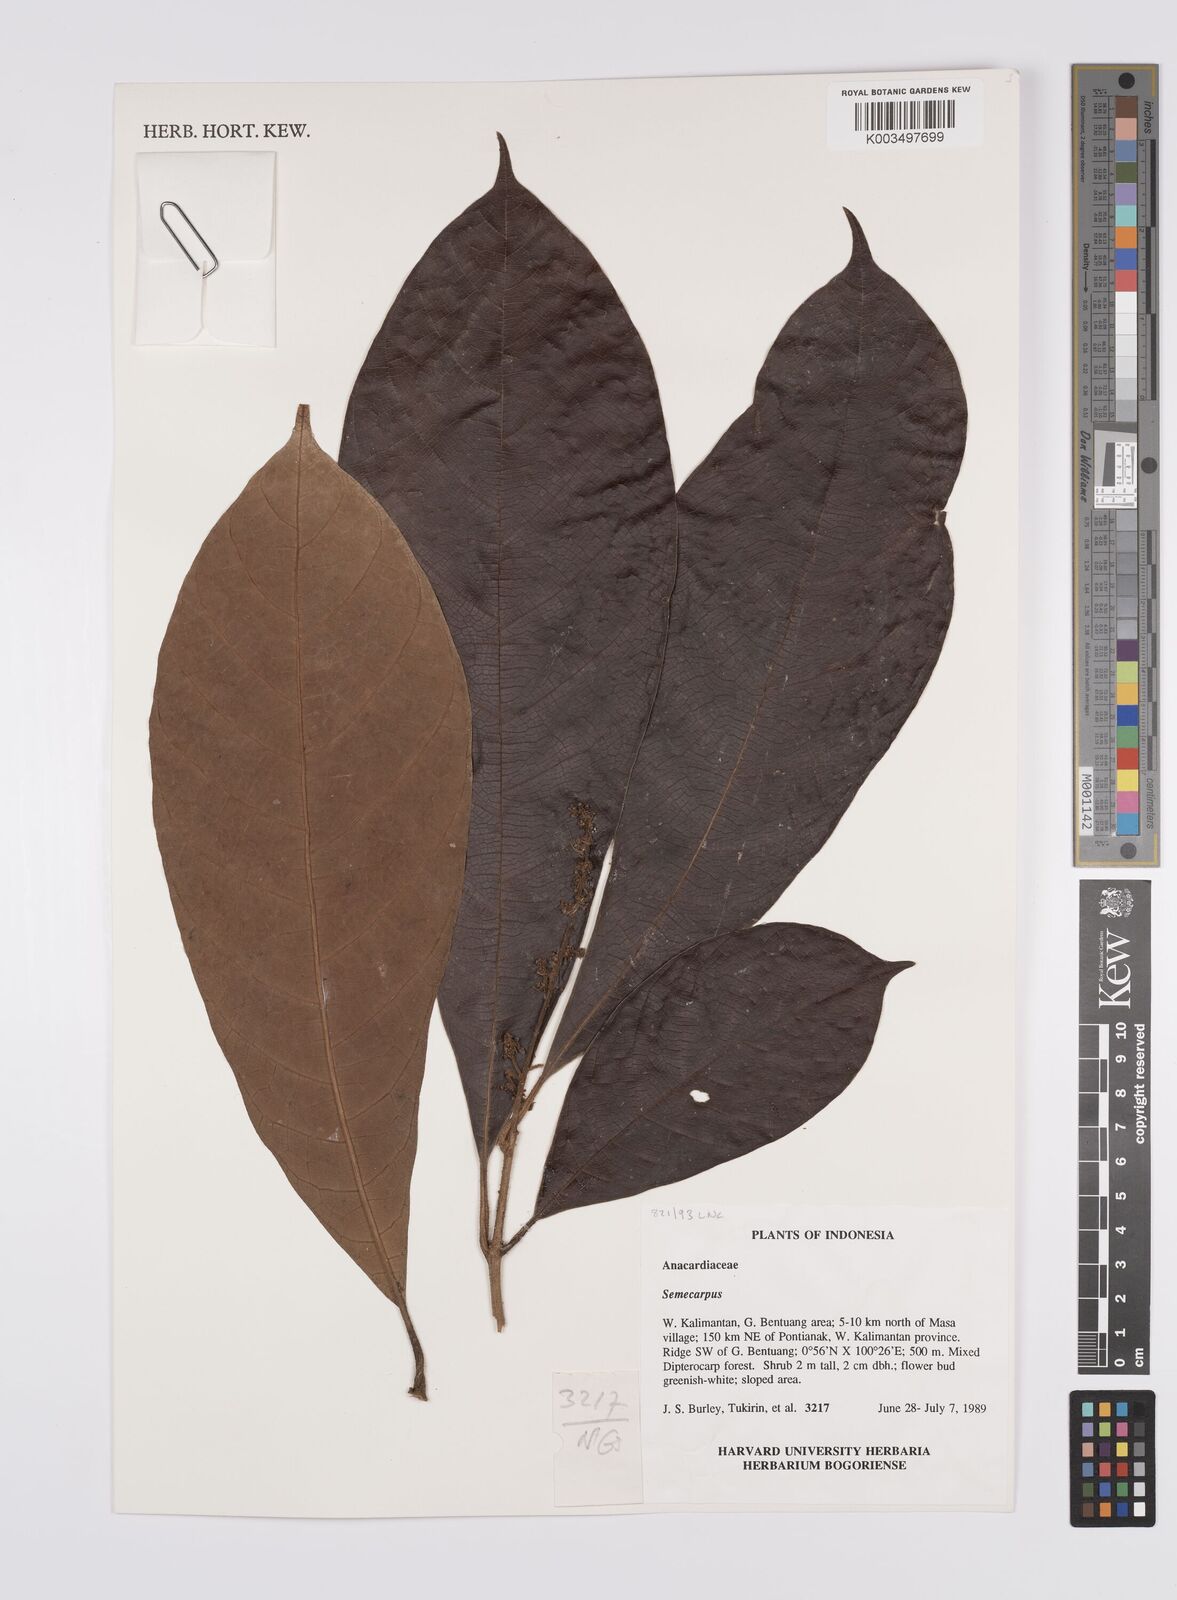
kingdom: Plantae
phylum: Tracheophyta
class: Magnoliopsida
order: Sapindales
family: Anacardiaceae
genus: Semecarpus
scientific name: Semecarpus
